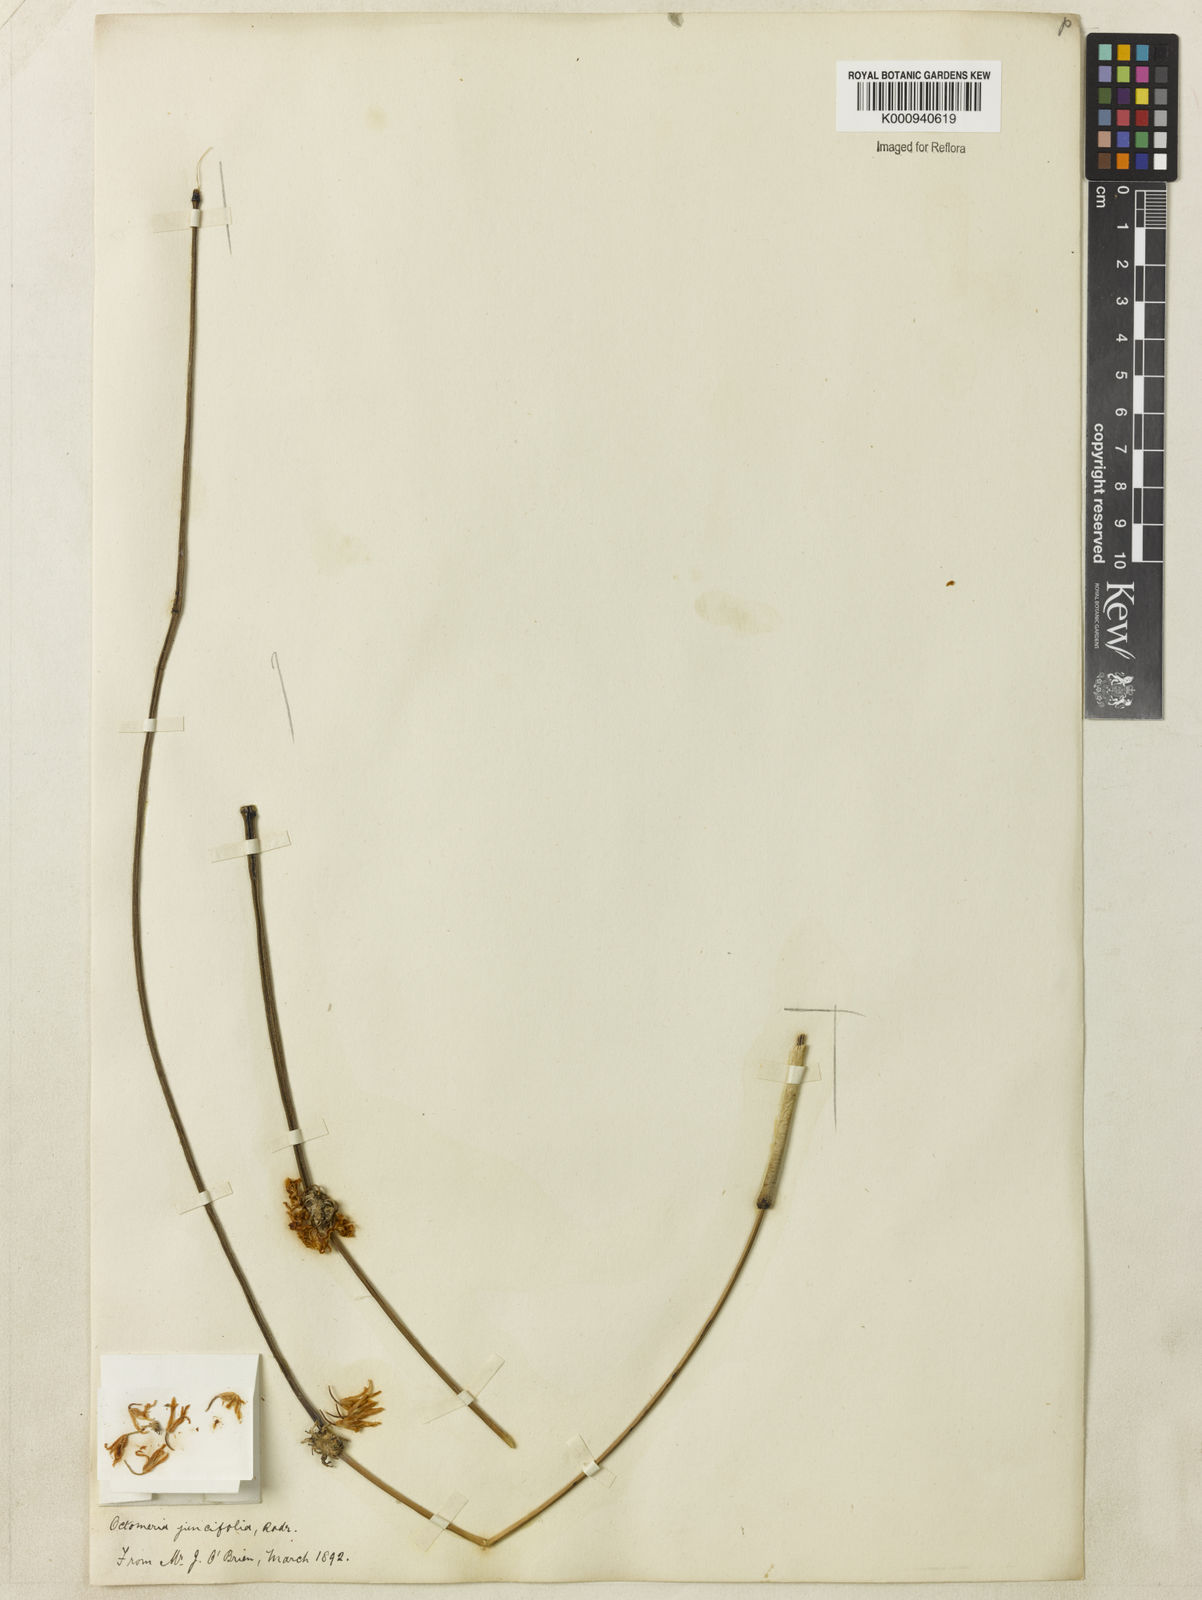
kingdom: Plantae
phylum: Tracheophyta
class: Liliopsida
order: Asparagales
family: Orchidaceae
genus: Octomeria
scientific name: Octomeria juncifolia
